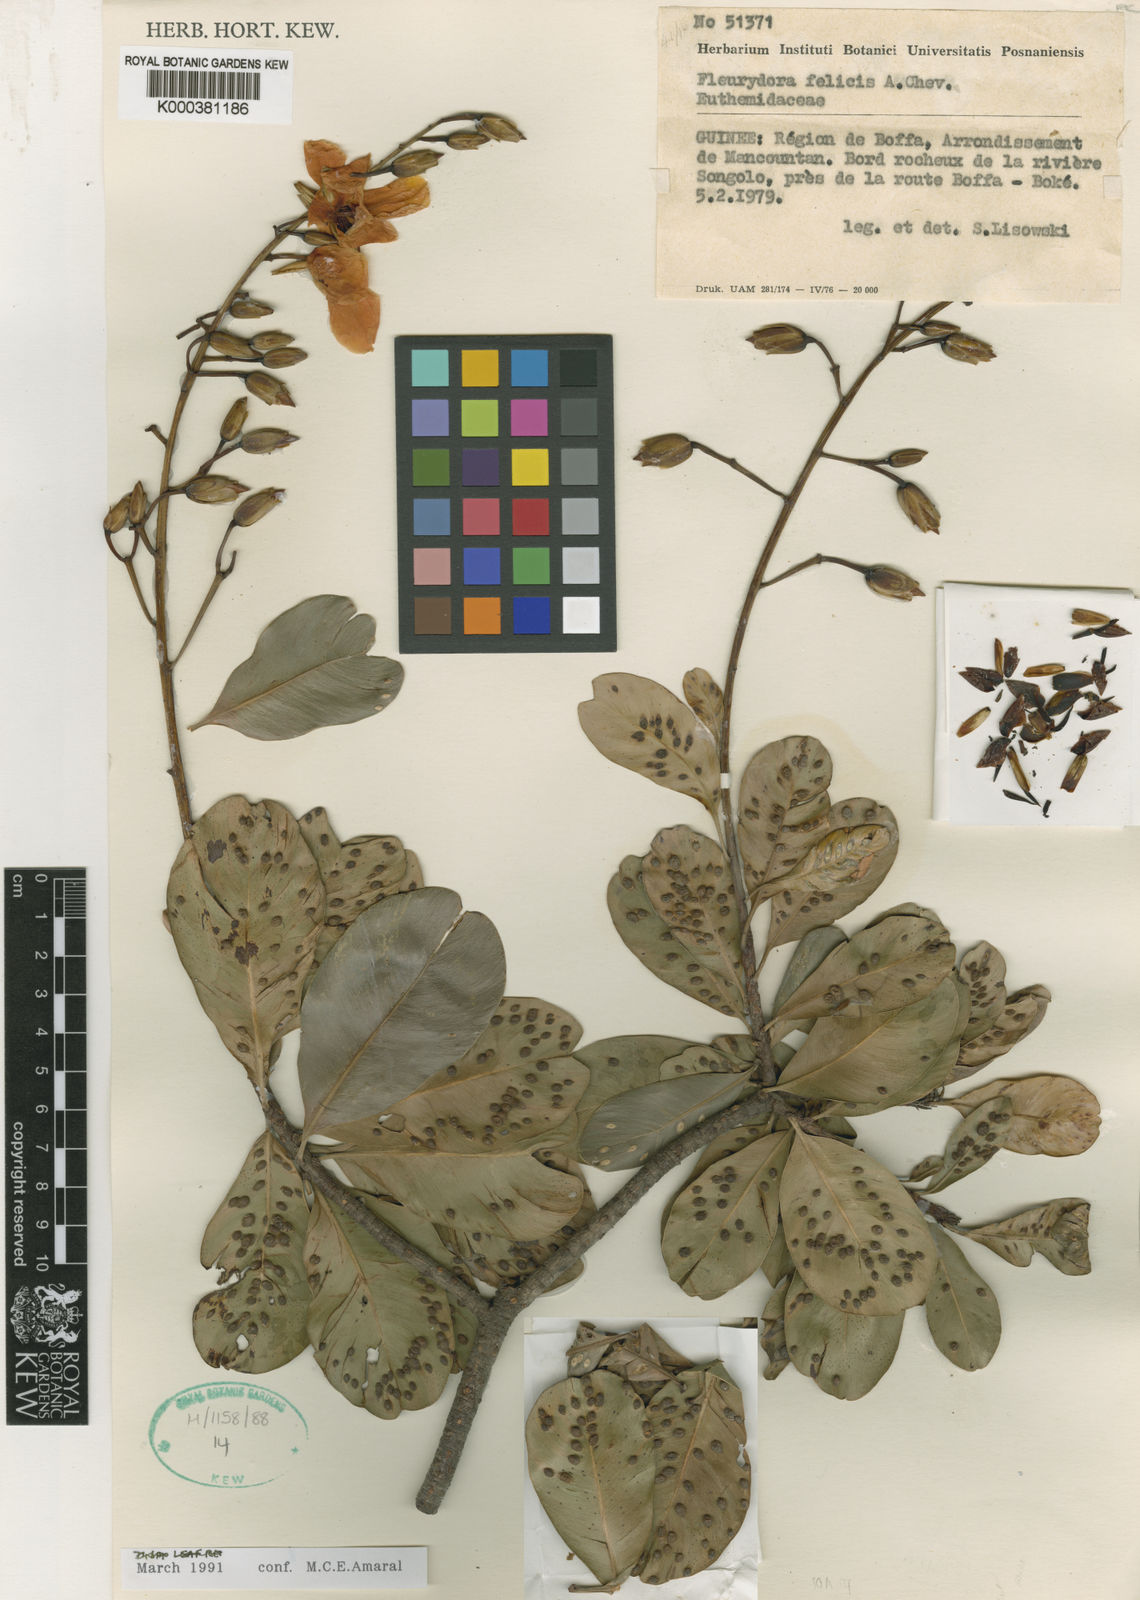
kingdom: Plantae
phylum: Tracheophyta
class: Magnoliopsida
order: Malpighiales
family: Ochnaceae
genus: Fleurydora
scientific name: Fleurydora felicis
